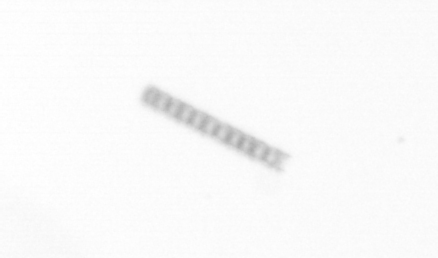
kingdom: Chromista
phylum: Ochrophyta
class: Bacillariophyceae
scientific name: Bacillariophyceae
